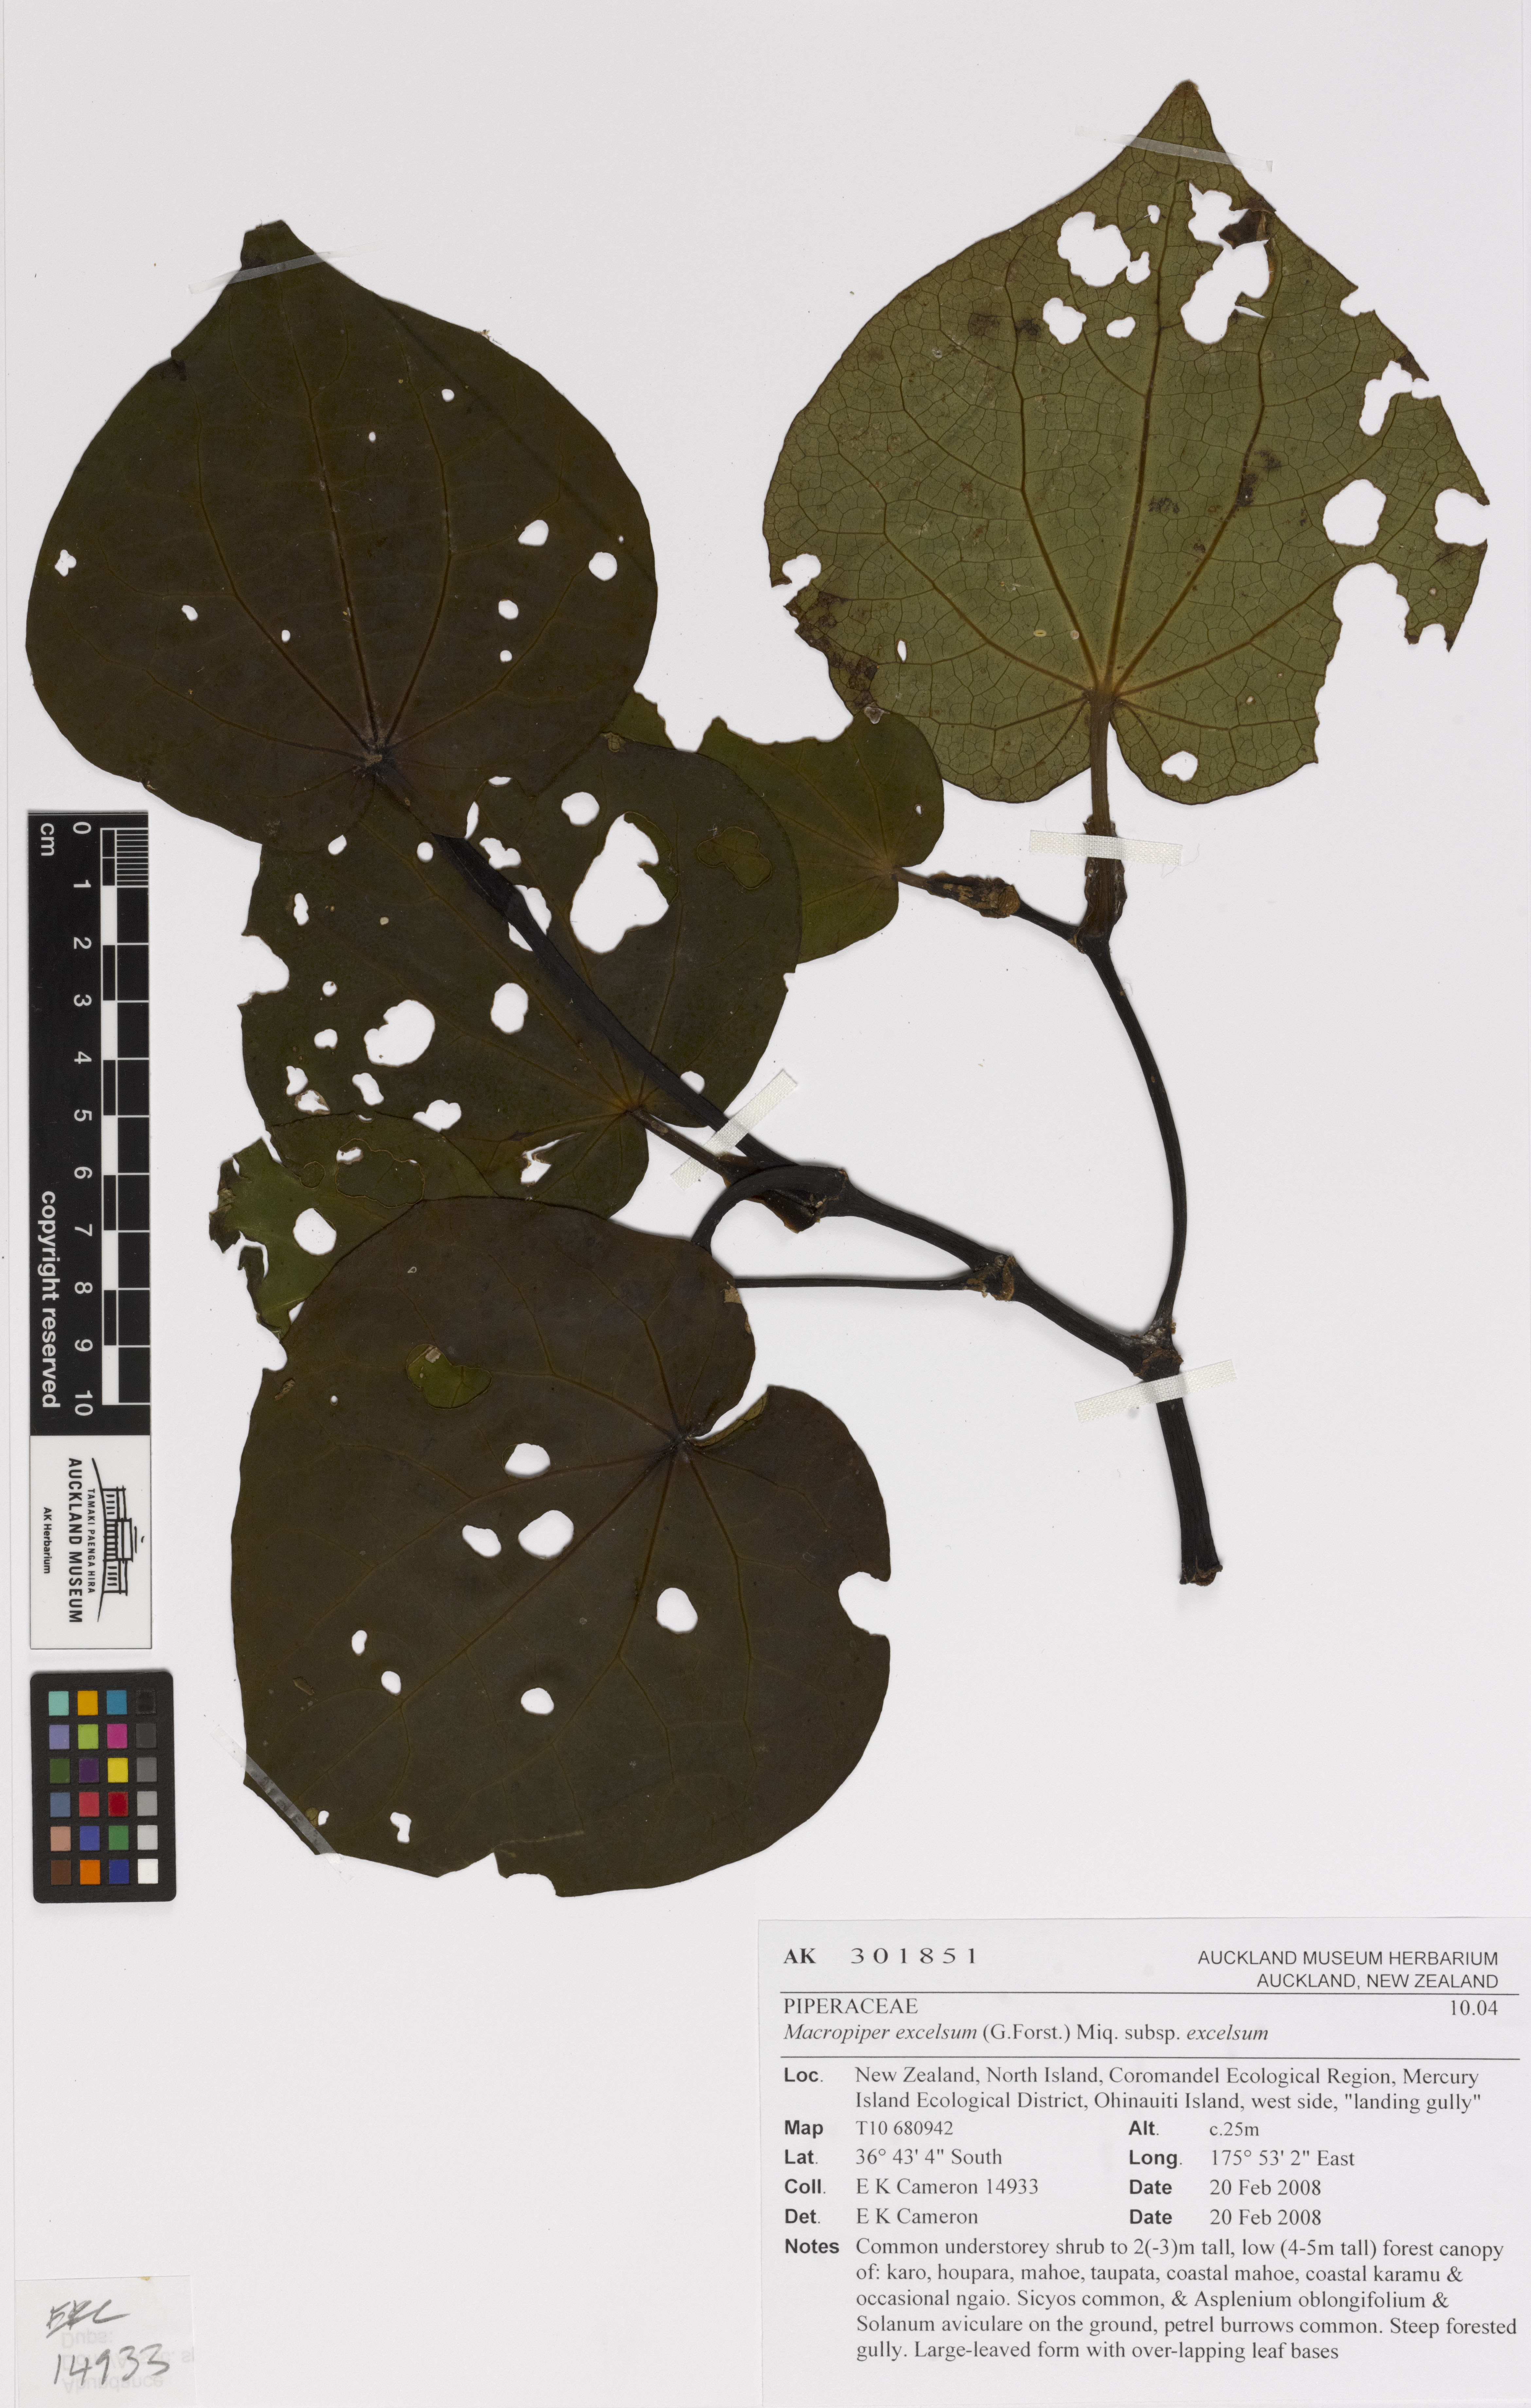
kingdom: Plantae
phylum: Tracheophyta
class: Magnoliopsida
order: Piperales
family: Piperaceae
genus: Macropiper
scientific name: Macropiper excelsum
